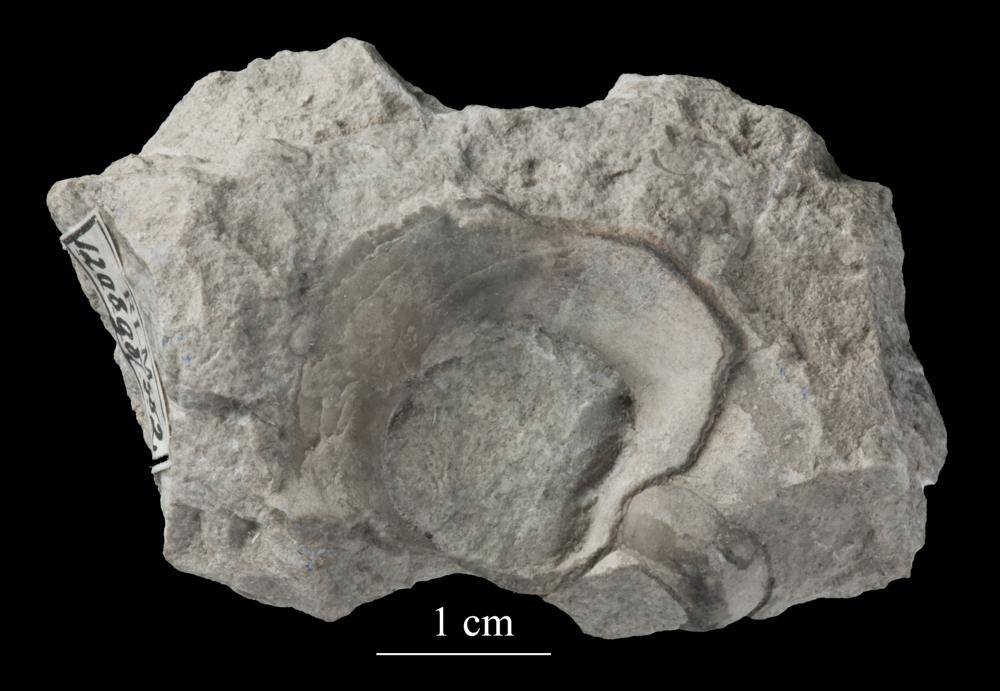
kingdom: Animalia
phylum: Mollusca
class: Gastropoda
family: Bucaniidae
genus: Salpingostoma
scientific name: Salpingostoma Bellerophon megalostoma
